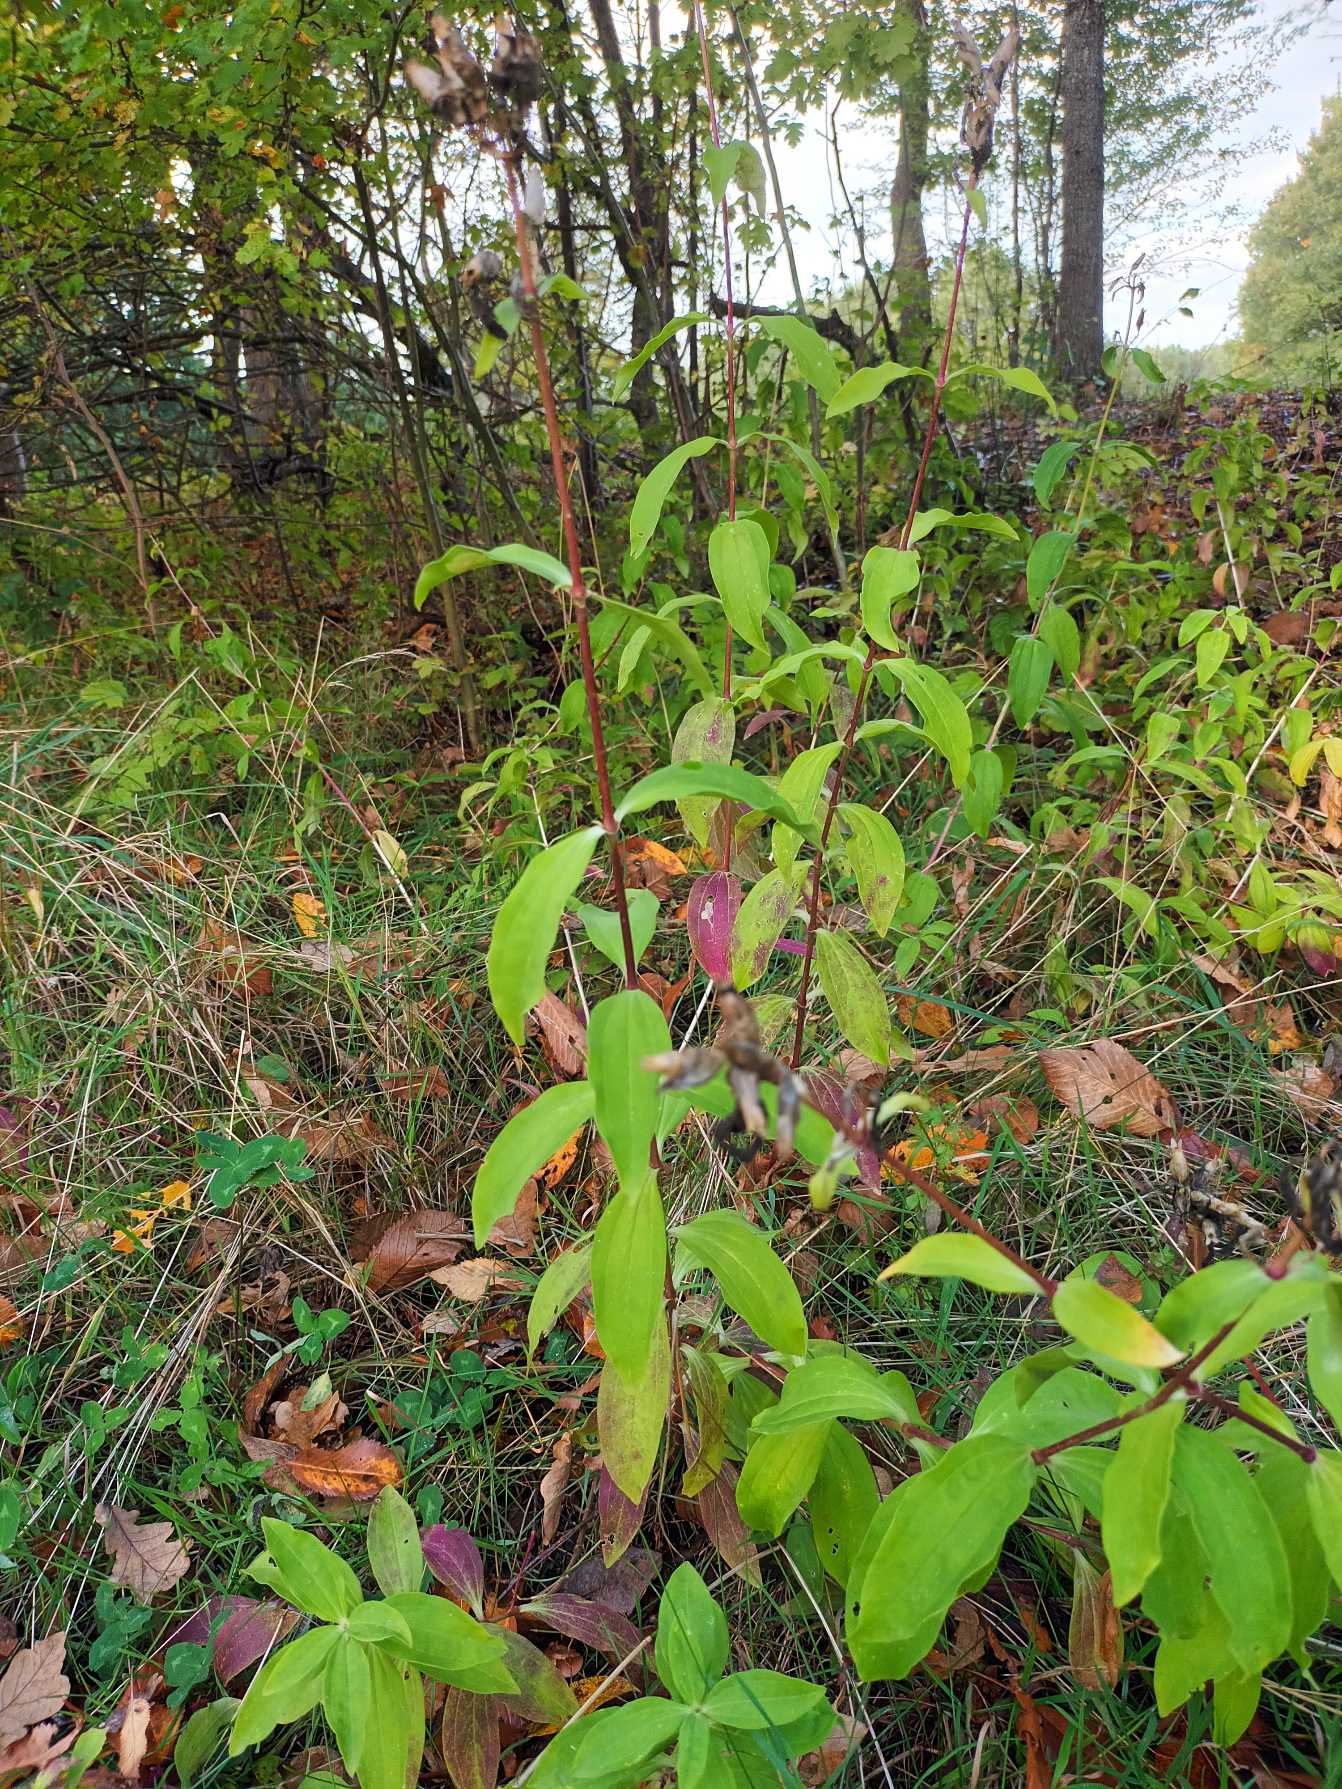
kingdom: Plantae
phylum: Tracheophyta
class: Magnoliopsida
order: Caryophyllales
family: Caryophyllaceae
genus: Saponaria
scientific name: Saponaria officinalis
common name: Sæbeurt
